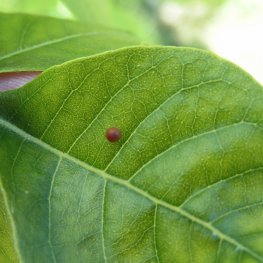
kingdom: Animalia
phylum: Arthropoda
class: Insecta
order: Lepidoptera
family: Papilionidae
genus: Papilio
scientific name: Papilio cresphontes
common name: Eastern Giant Swallowtail
